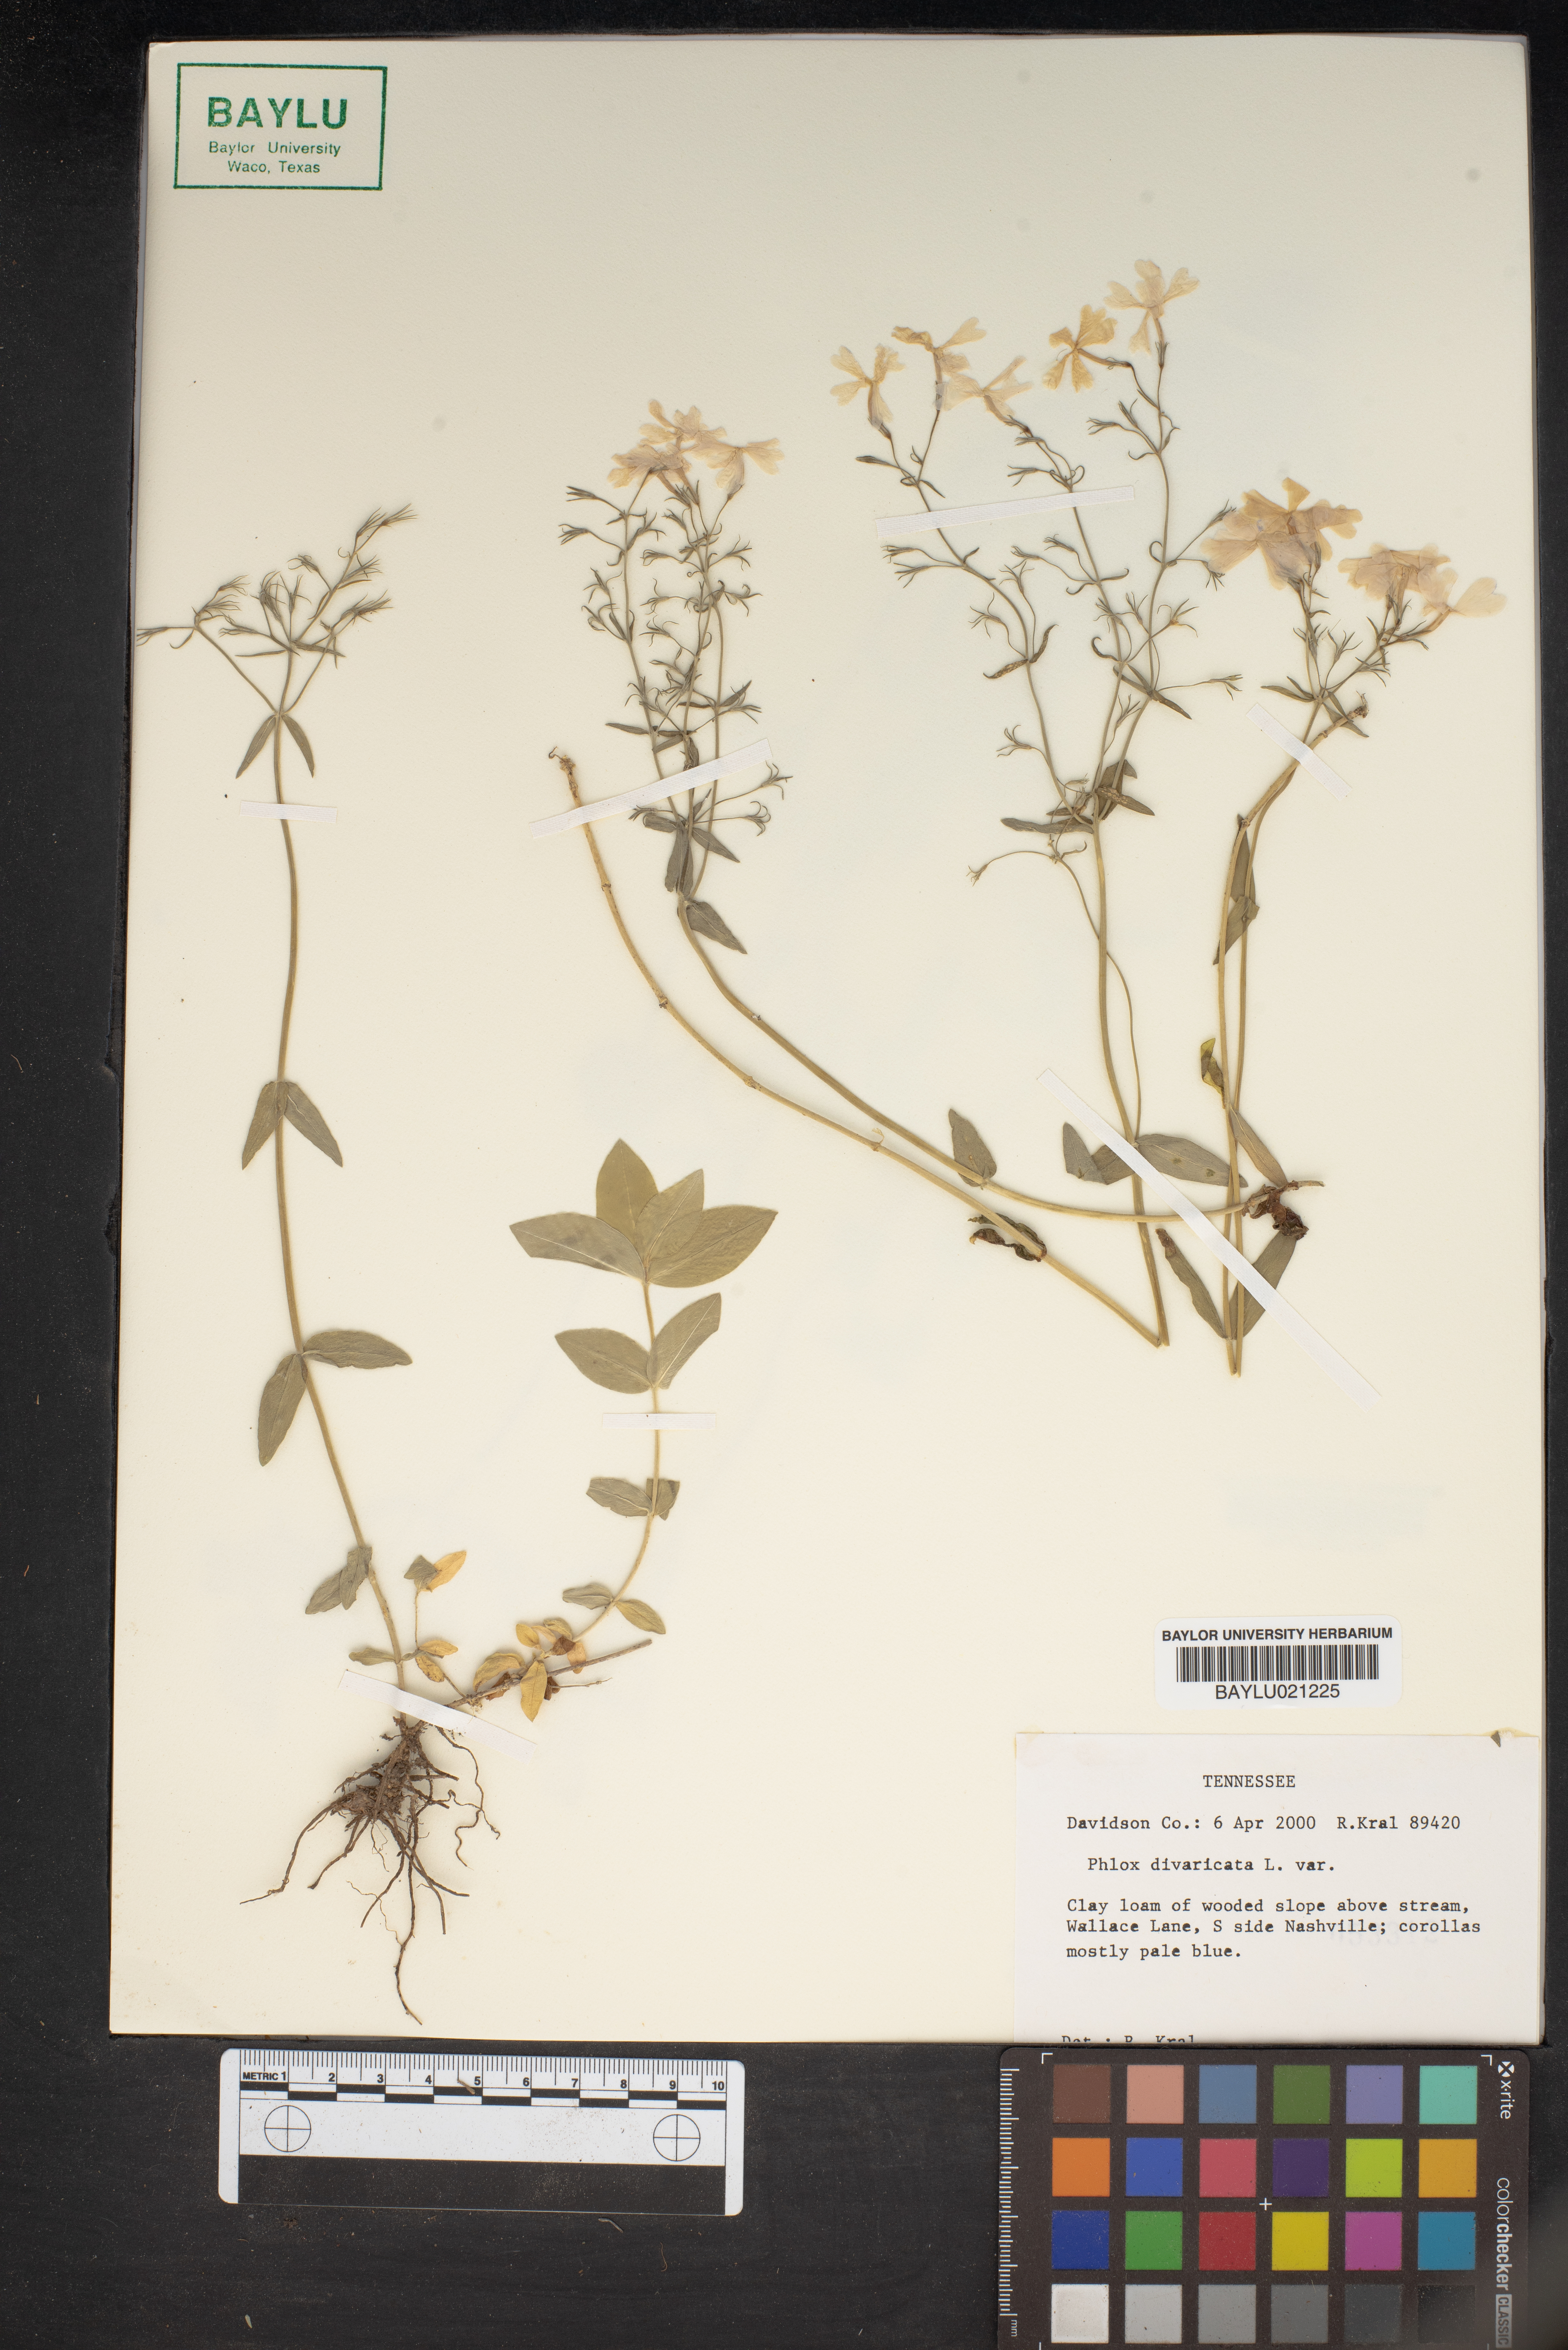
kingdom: Plantae
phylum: Tracheophyta
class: Magnoliopsida
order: Ericales
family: Polemoniaceae
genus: Phlox
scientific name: Phlox divaricata
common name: Blue phlox
